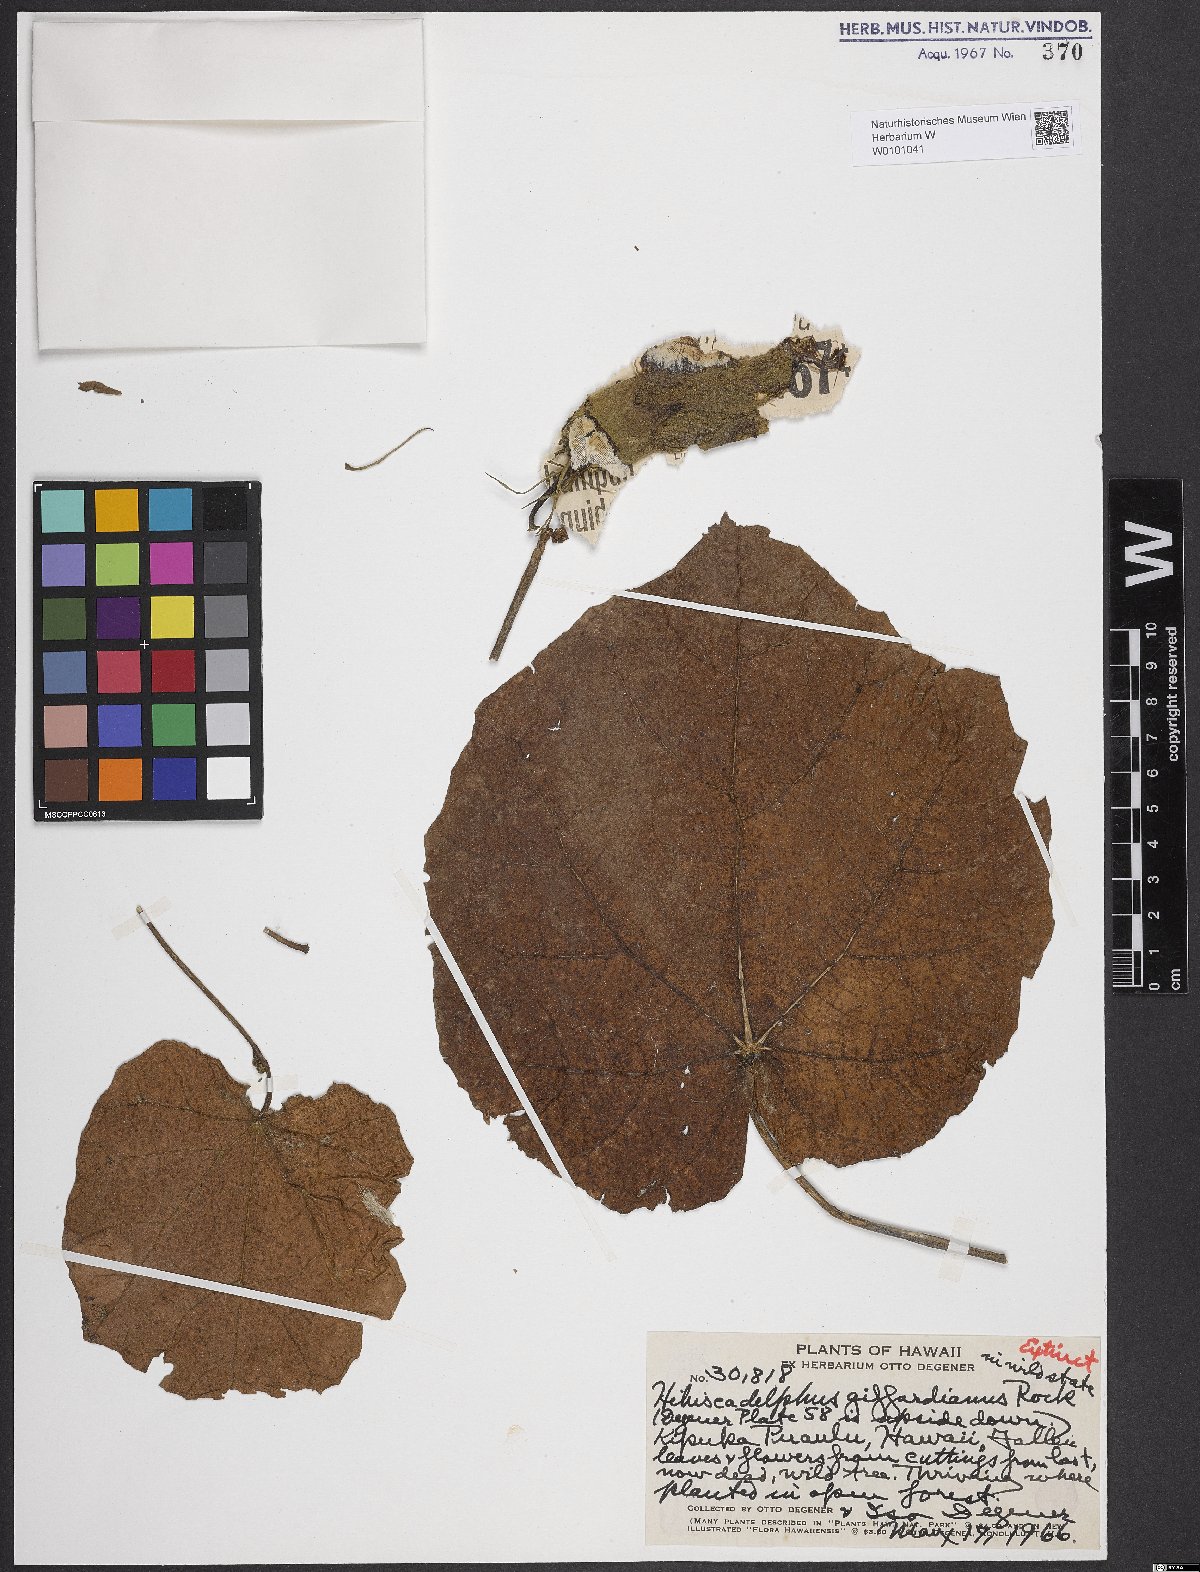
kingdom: Plantae
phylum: Tracheophyta
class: Magnoliopsida
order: Malvales
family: Malvaceae
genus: Hibiscadelphus
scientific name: Hibiscadelphus giffardianus
